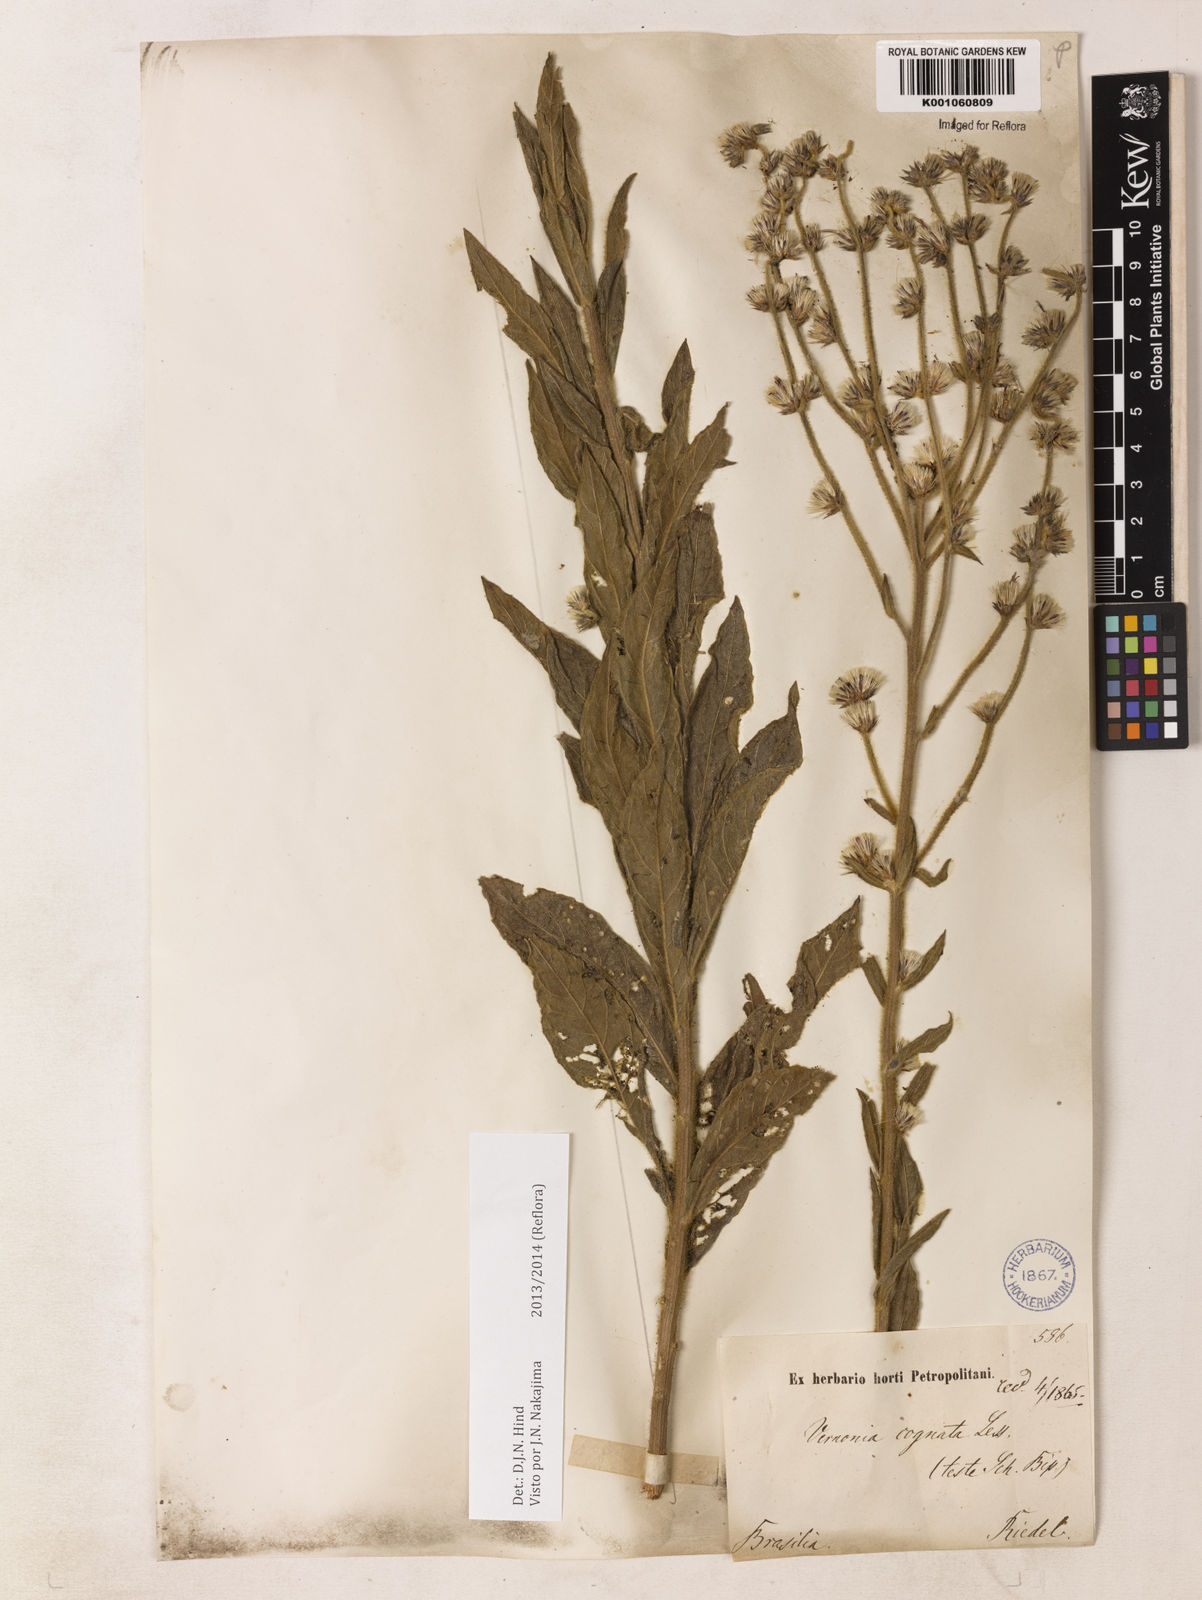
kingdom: Plantae
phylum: Tracheophyta
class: Magnoliopsida
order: Asterales
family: Asteraceae
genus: Chrysolaena
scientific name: Chrysolaena cognata
